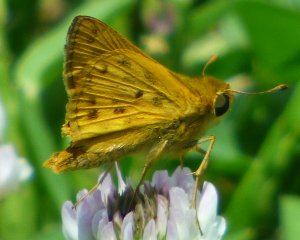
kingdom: Animalia
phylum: Arthropoda
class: Insecta
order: Lepidoptera
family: Hesperiidae
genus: Hylephila
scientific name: Hylephila phyleus
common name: Fiery Skipper
